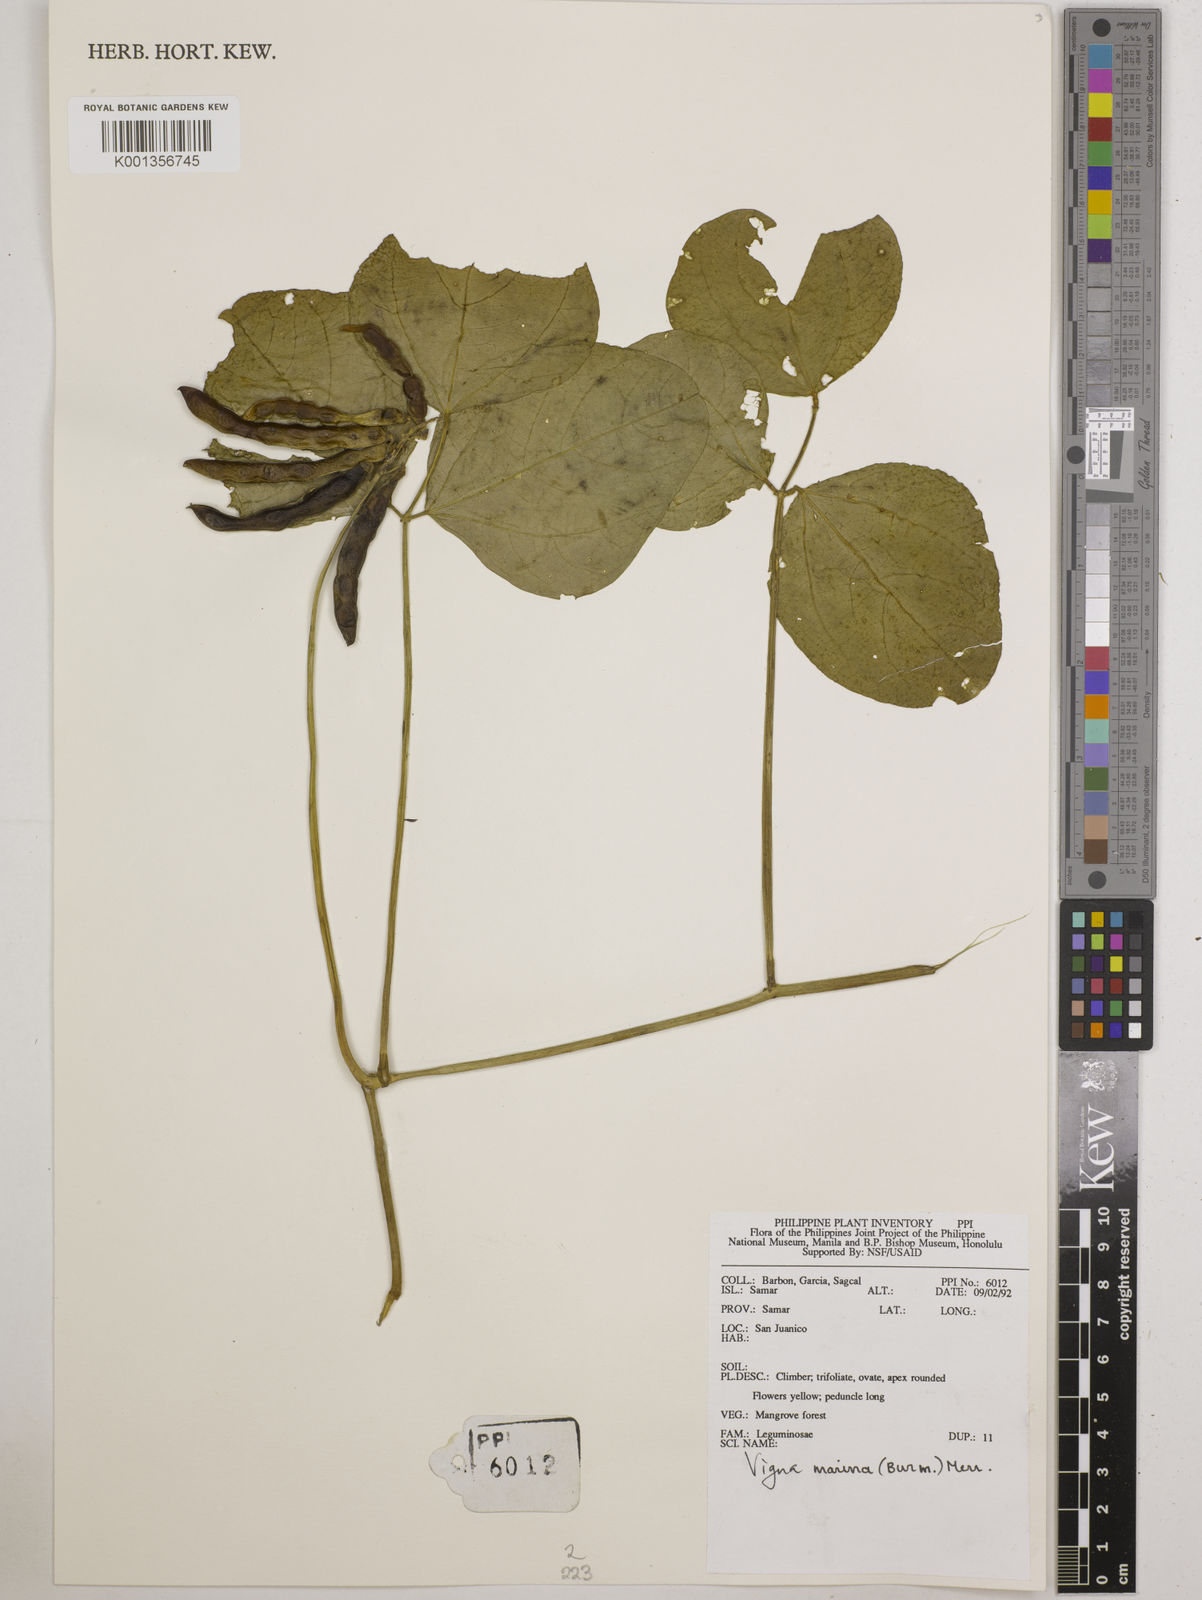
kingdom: Plantae
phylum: Tracheophyta
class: Magnoliopsida
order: Fabales
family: Fabaceae
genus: Vigna
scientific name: Vigna marina
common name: Dune-bean
